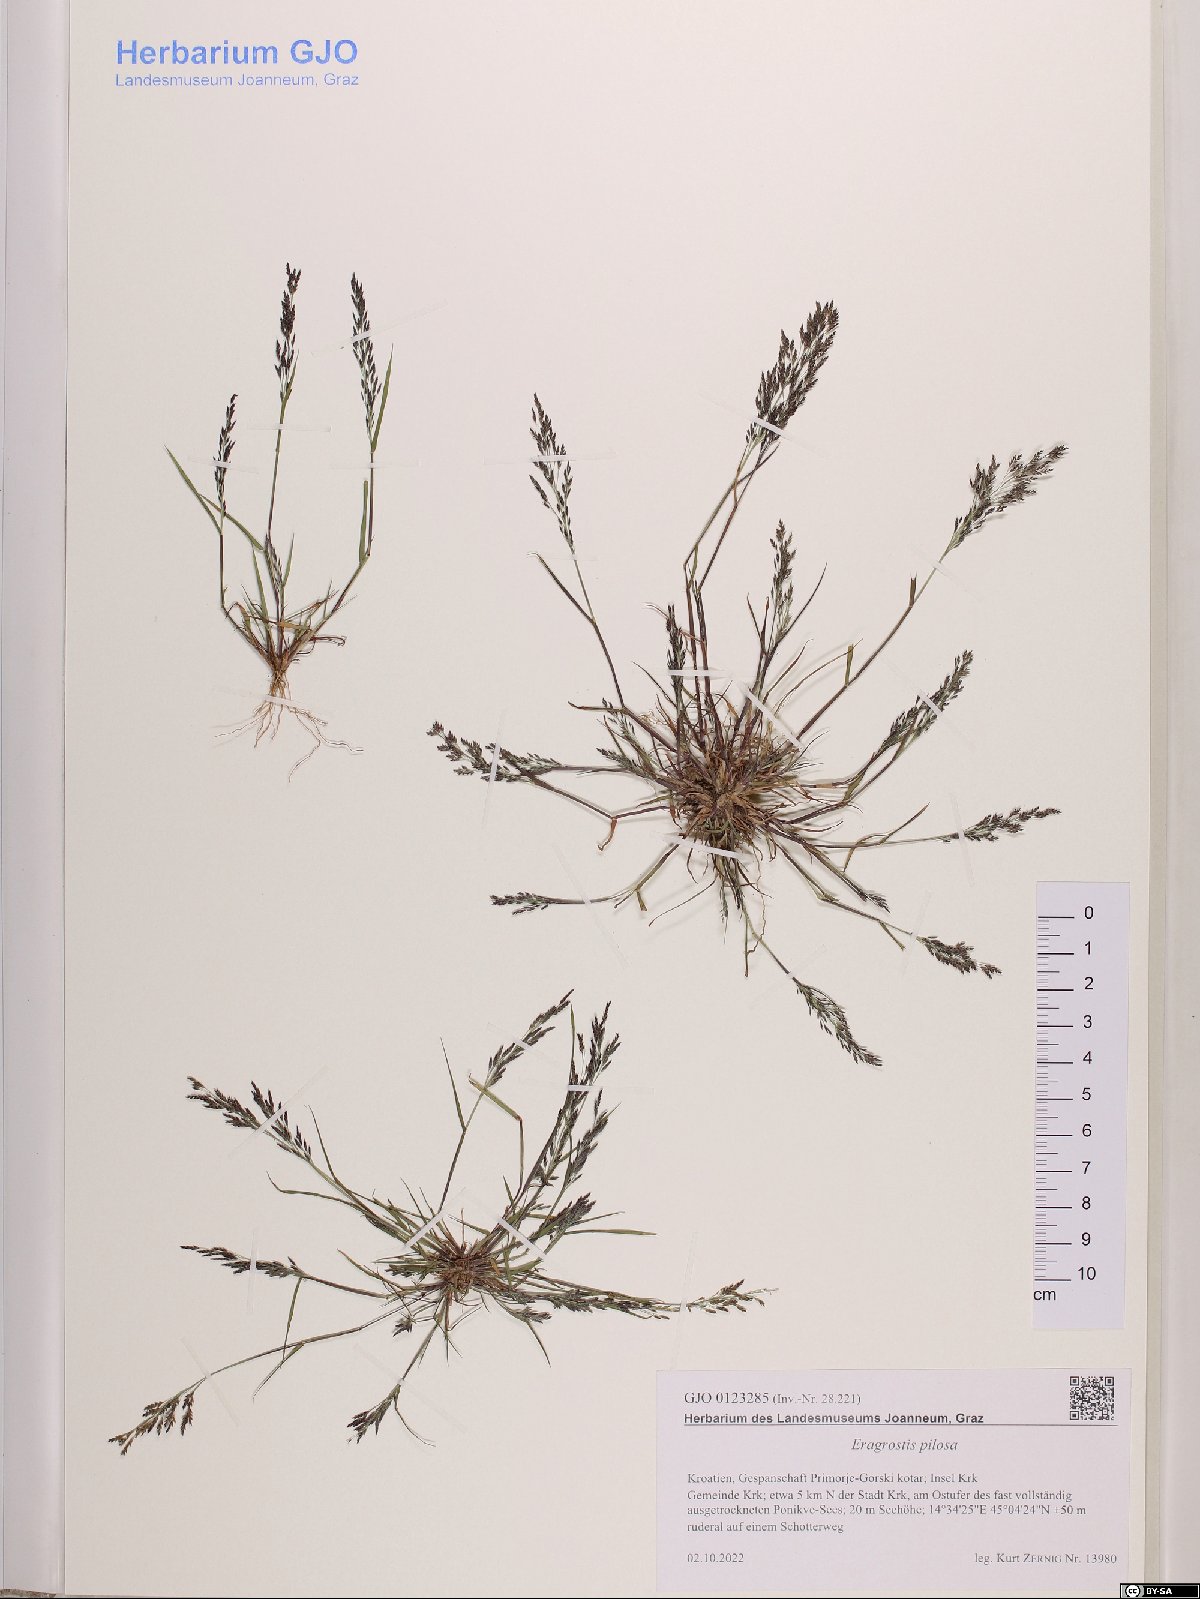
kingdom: Plantae
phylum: Tracheophyta
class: Liliopsida
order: Poales
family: Poaceae
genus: Eragrostis
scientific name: Eragrostis pilosa
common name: Indian lovegrass
